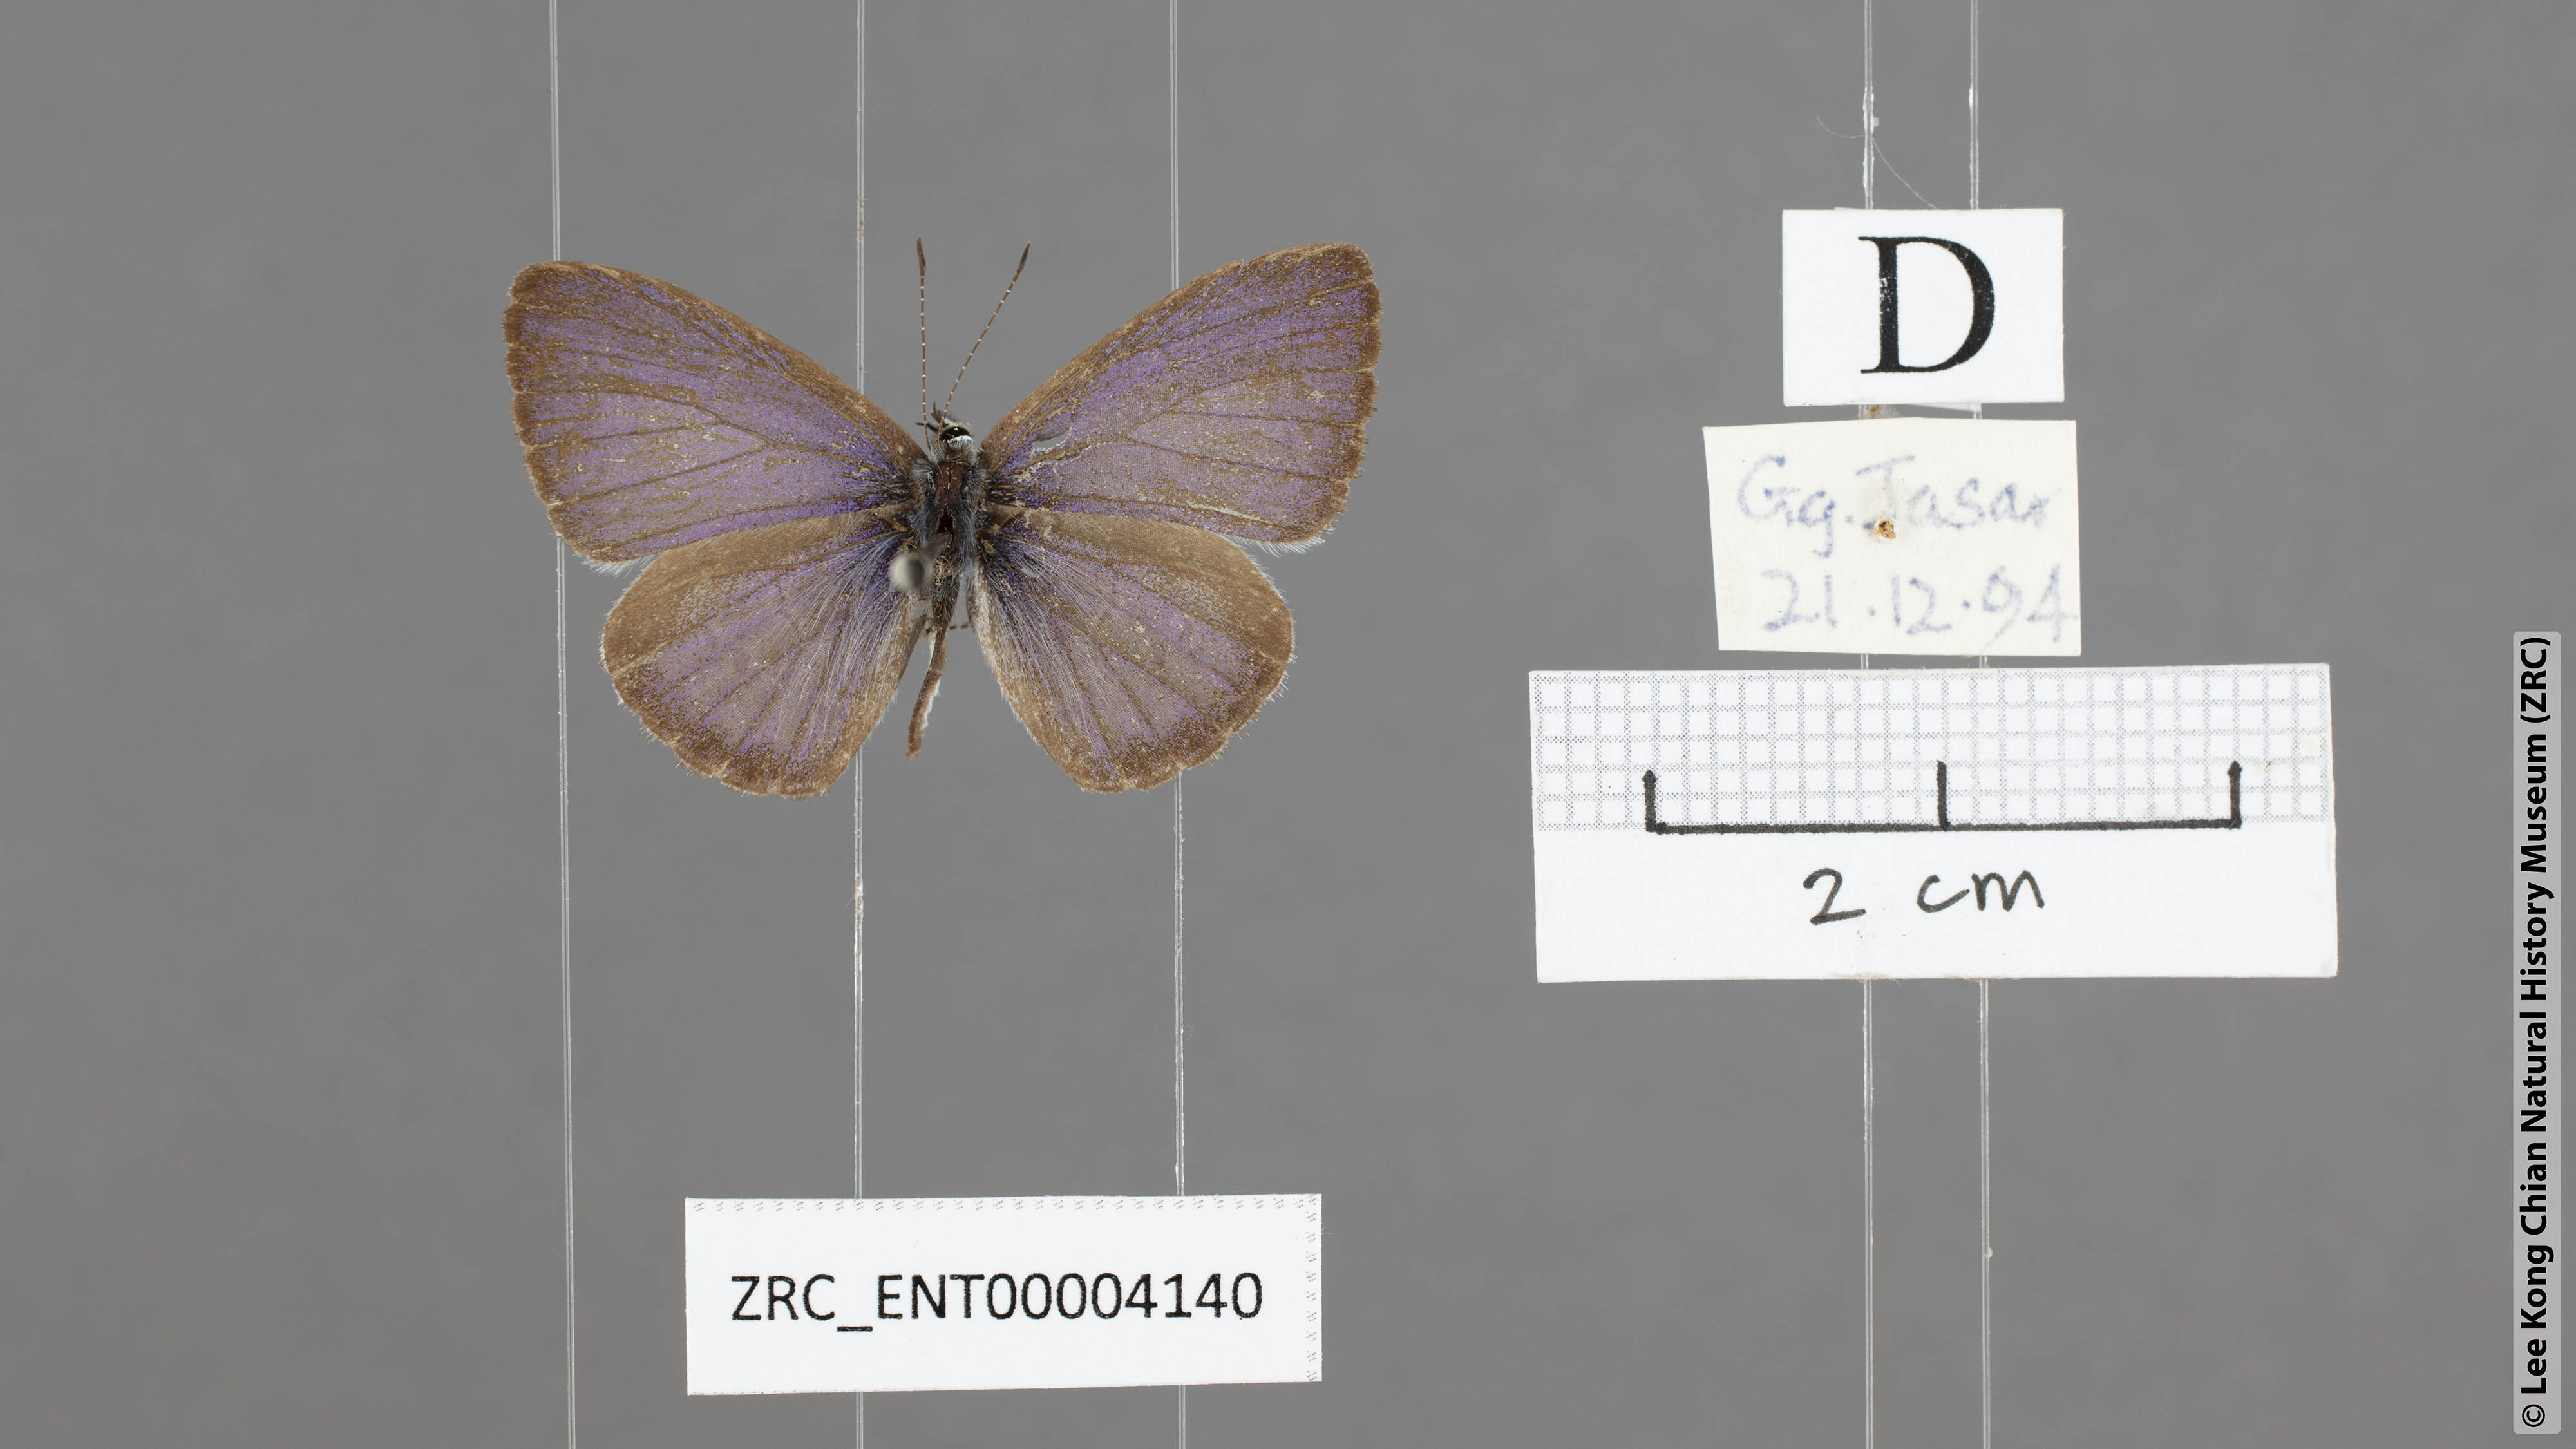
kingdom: Animalia
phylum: Arthropoda
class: Insecta
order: Lepidoptera
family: Lycaenidae
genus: Celastrina
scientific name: Celastrina lavendularis
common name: Plain hedge blue
